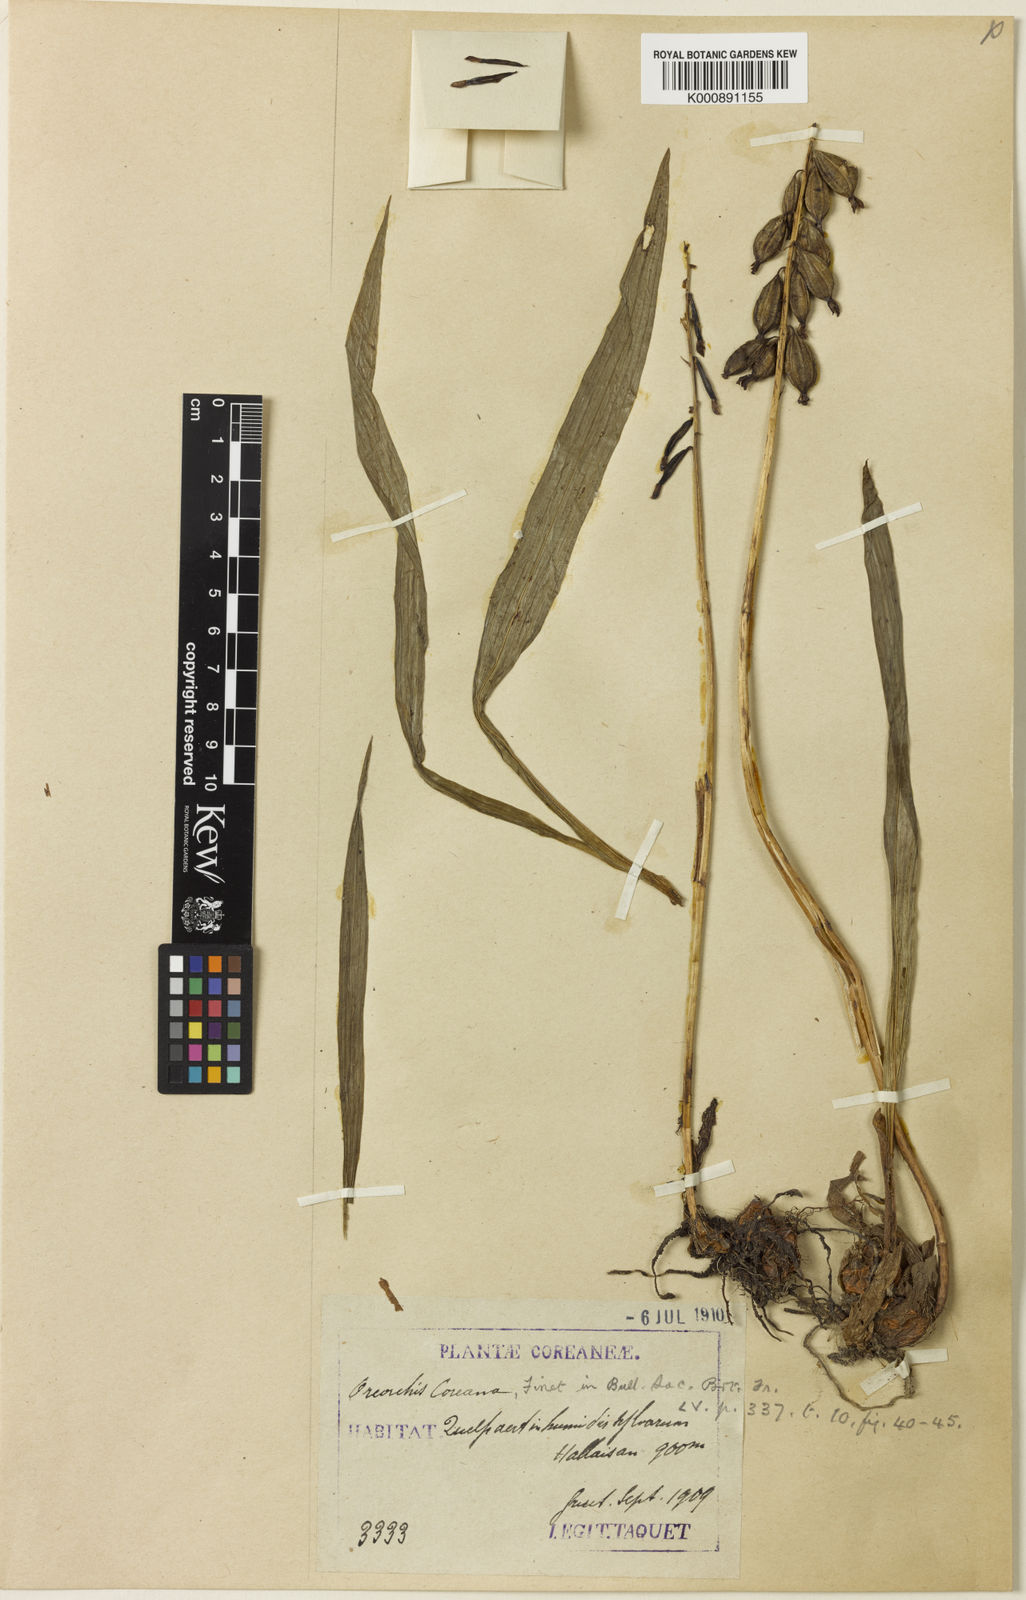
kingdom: Plantae
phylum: Tracheophyta
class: Liliopsida
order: Asparagales
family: Orchidaceae
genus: Oreorchis
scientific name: Oreorchis patens
